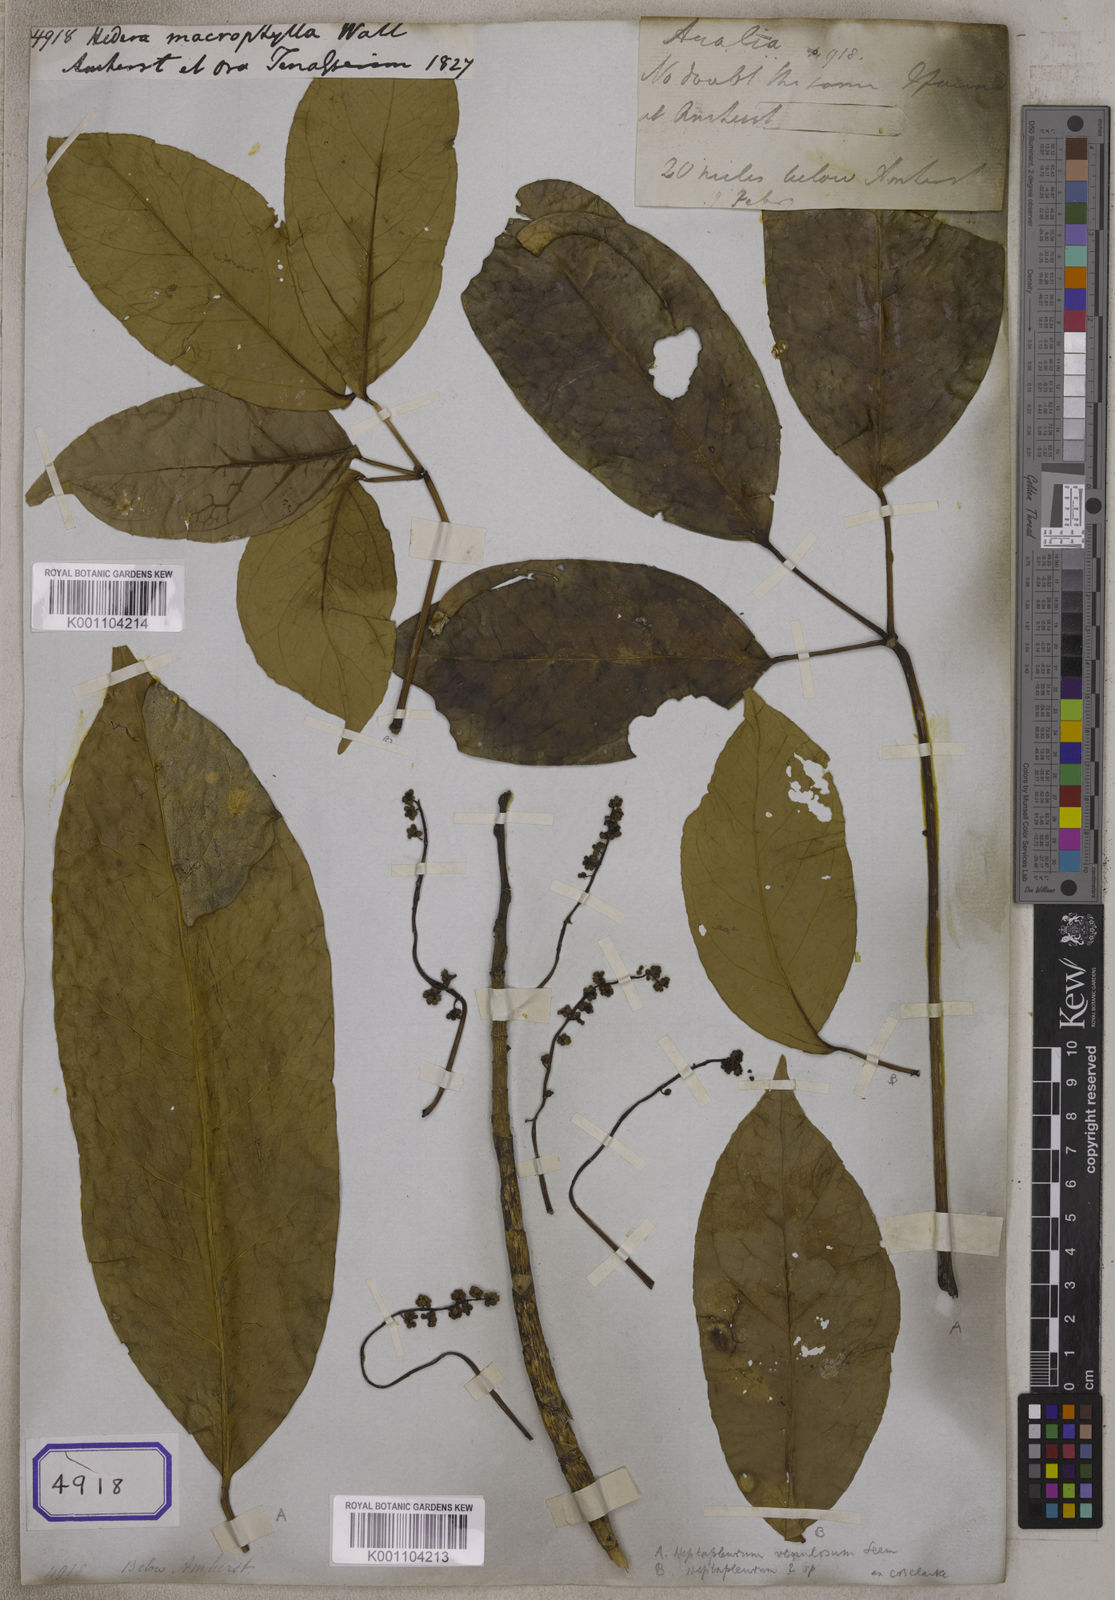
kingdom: Plantae
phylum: Tracheophyta
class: Magnoliopsida
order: Apiales
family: Araliaceae
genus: Heptapleurum
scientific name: Heptapleurum bengalense
